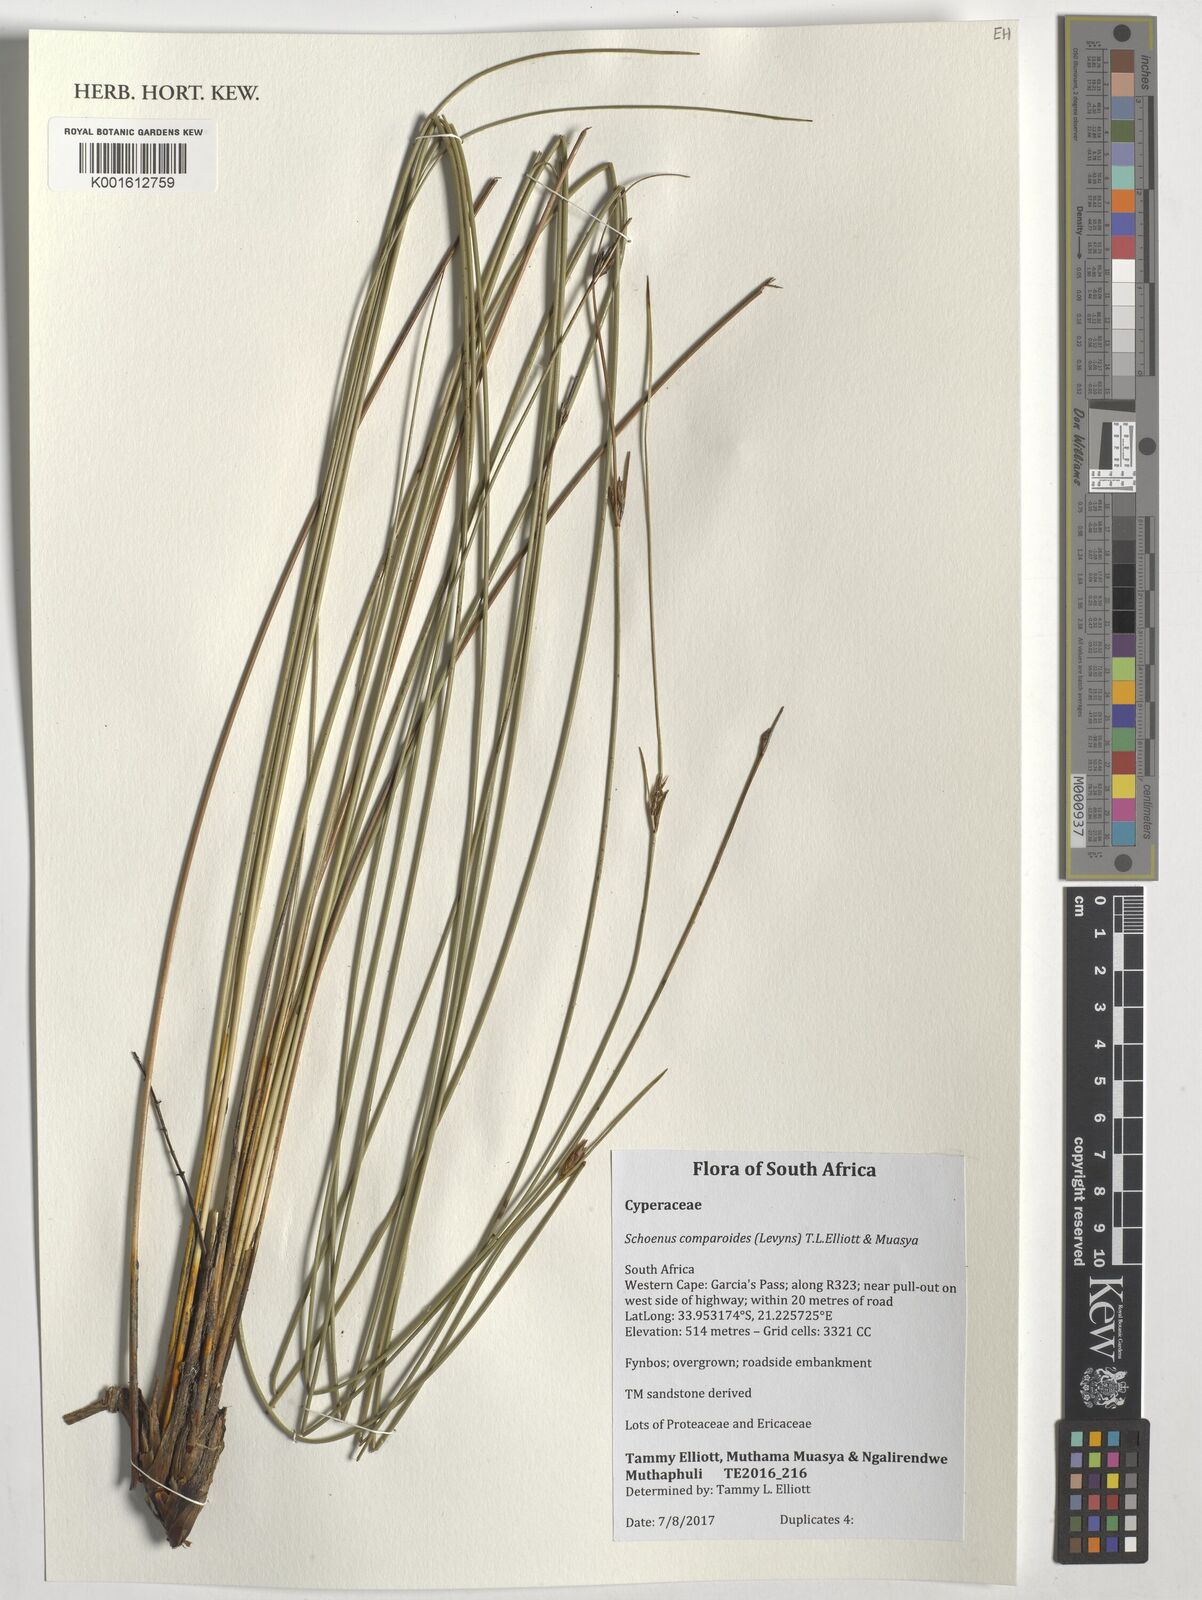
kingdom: Plantae
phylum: Tracheophyta
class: Liliopsida
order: Poales
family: Cyperaceae
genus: Schoenus
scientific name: Schoenus comparoides
